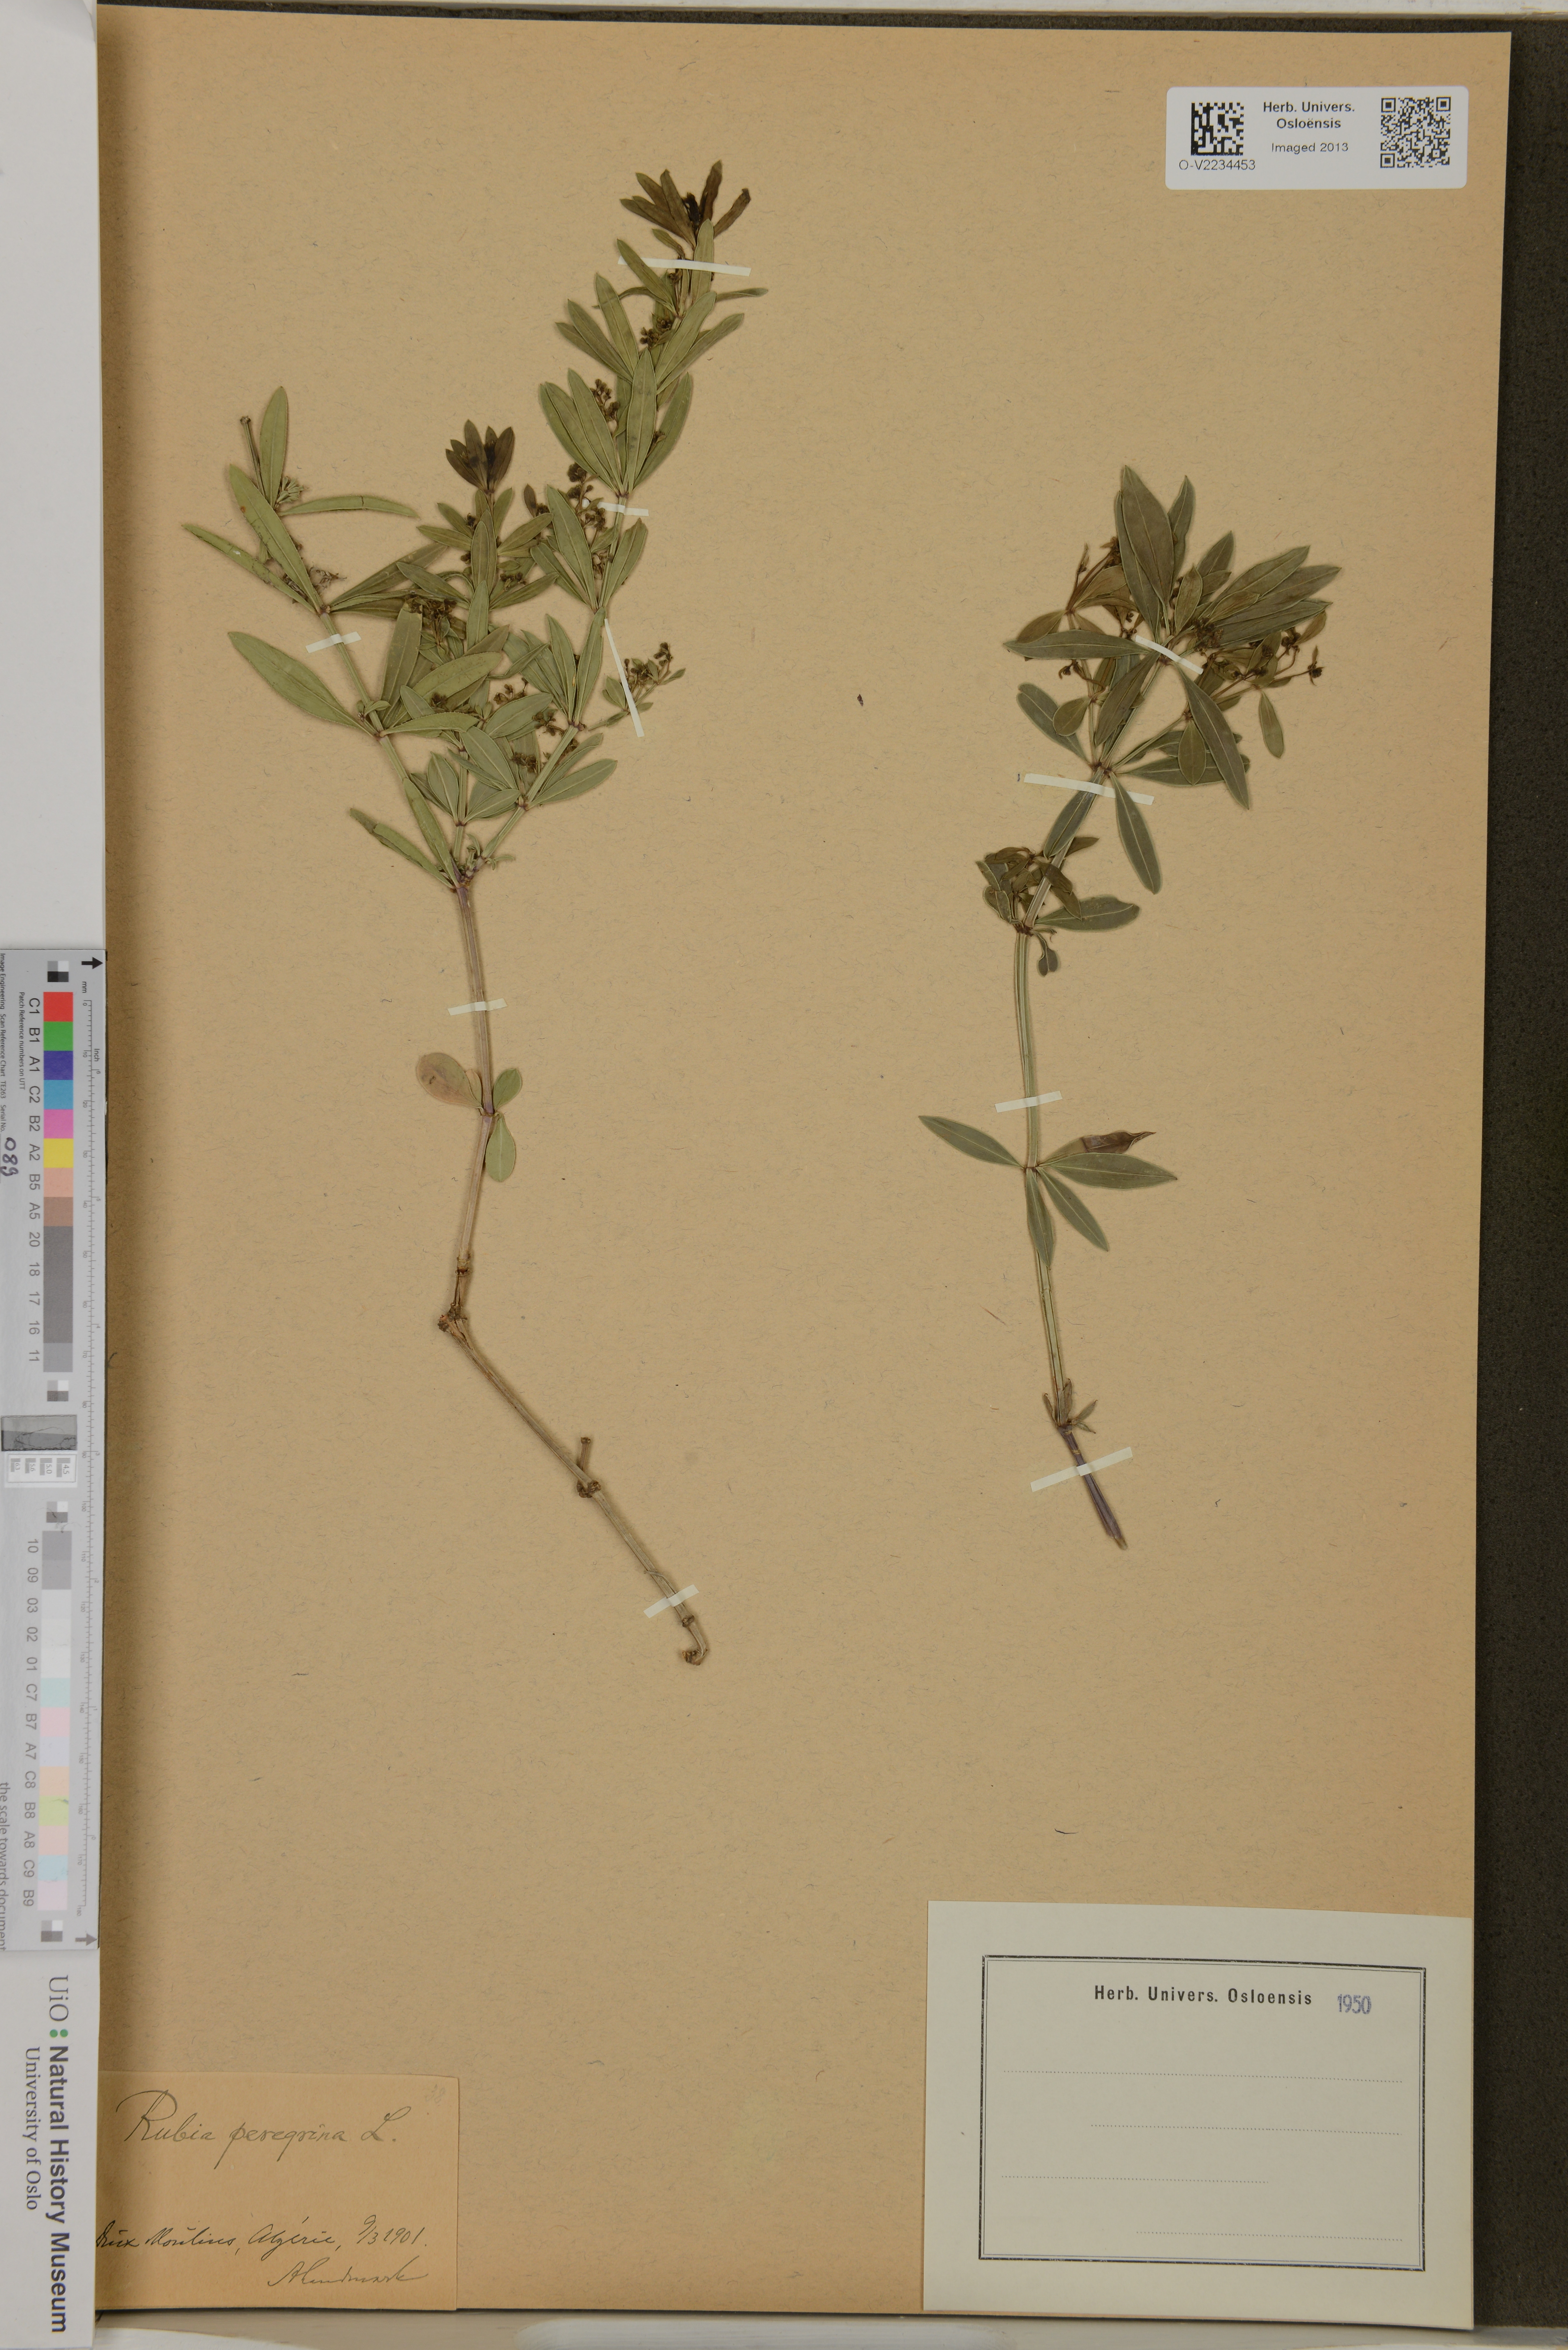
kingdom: Plantae
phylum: Tracheophyta
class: Magnoliopsida
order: Gentianales
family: Rubiaceae
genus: Rubia
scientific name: Rubia peregrina
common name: Wild madder
